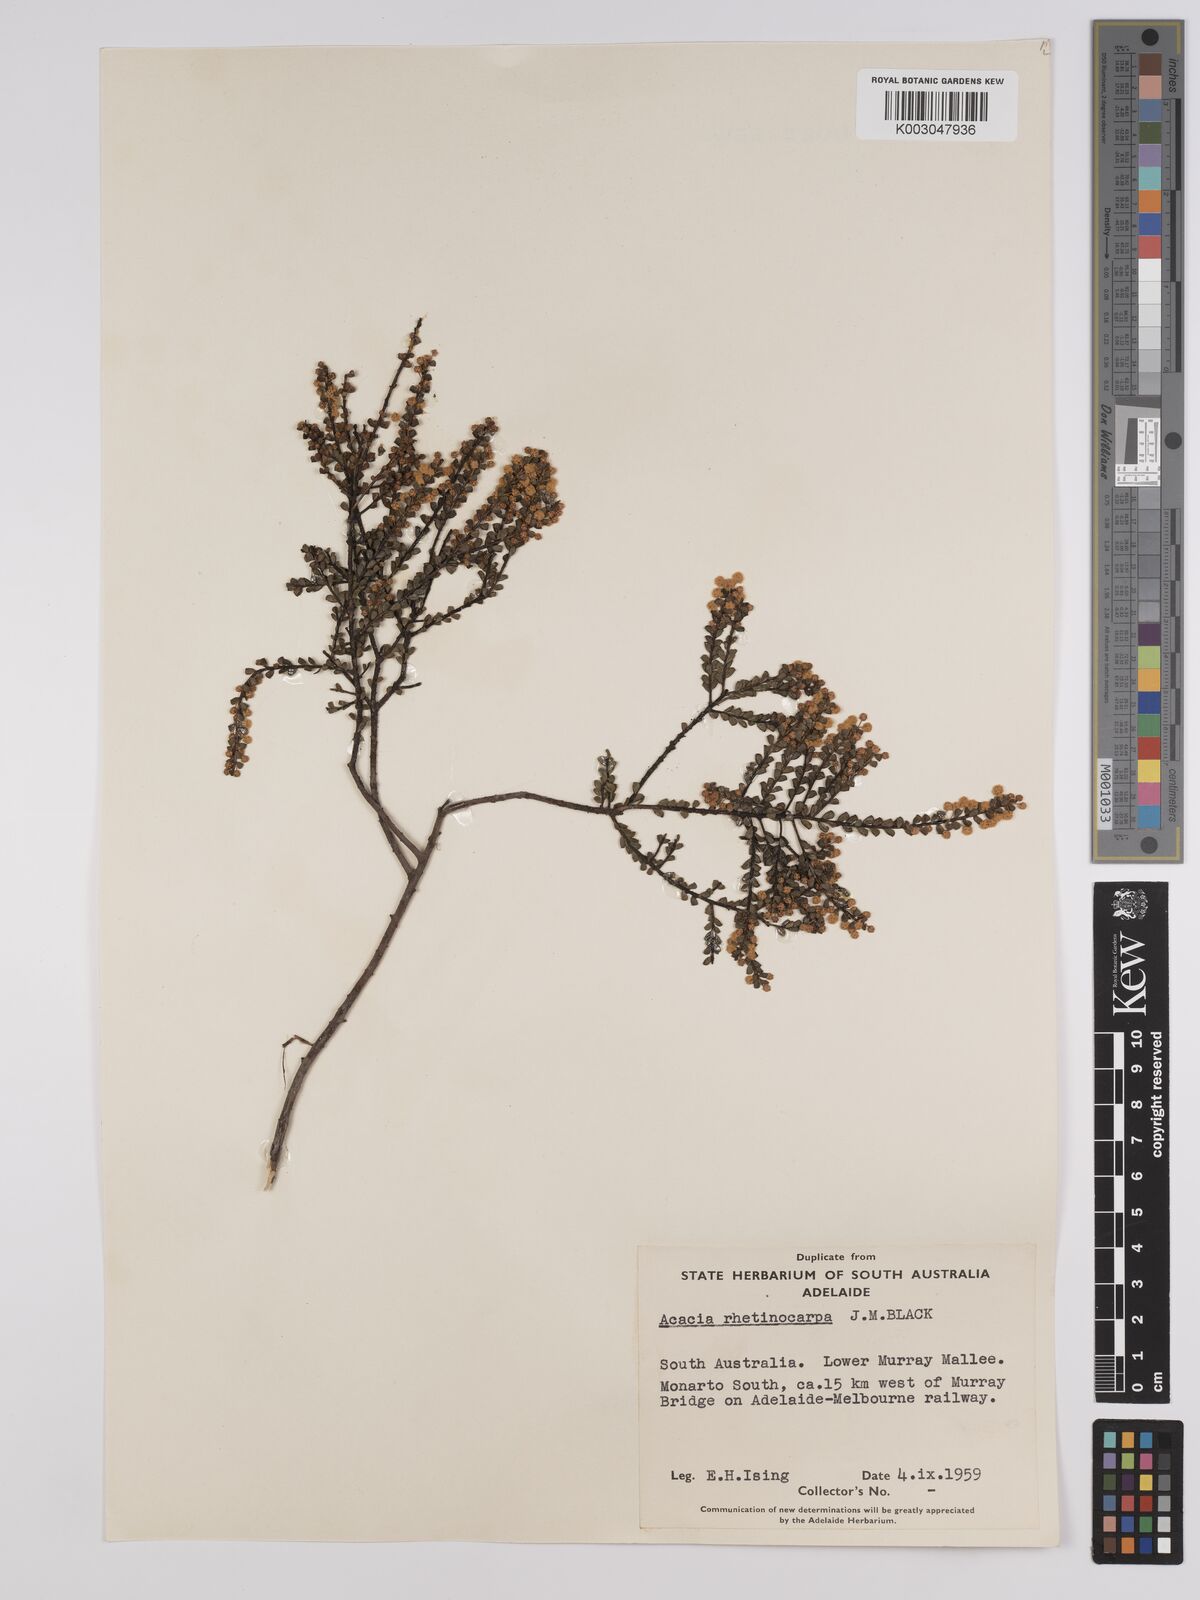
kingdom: Plantae
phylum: Tracheophyta
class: Magnoliopsida
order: Fabales
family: Fabaceae
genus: Acacia
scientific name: Acacia brachyclada
